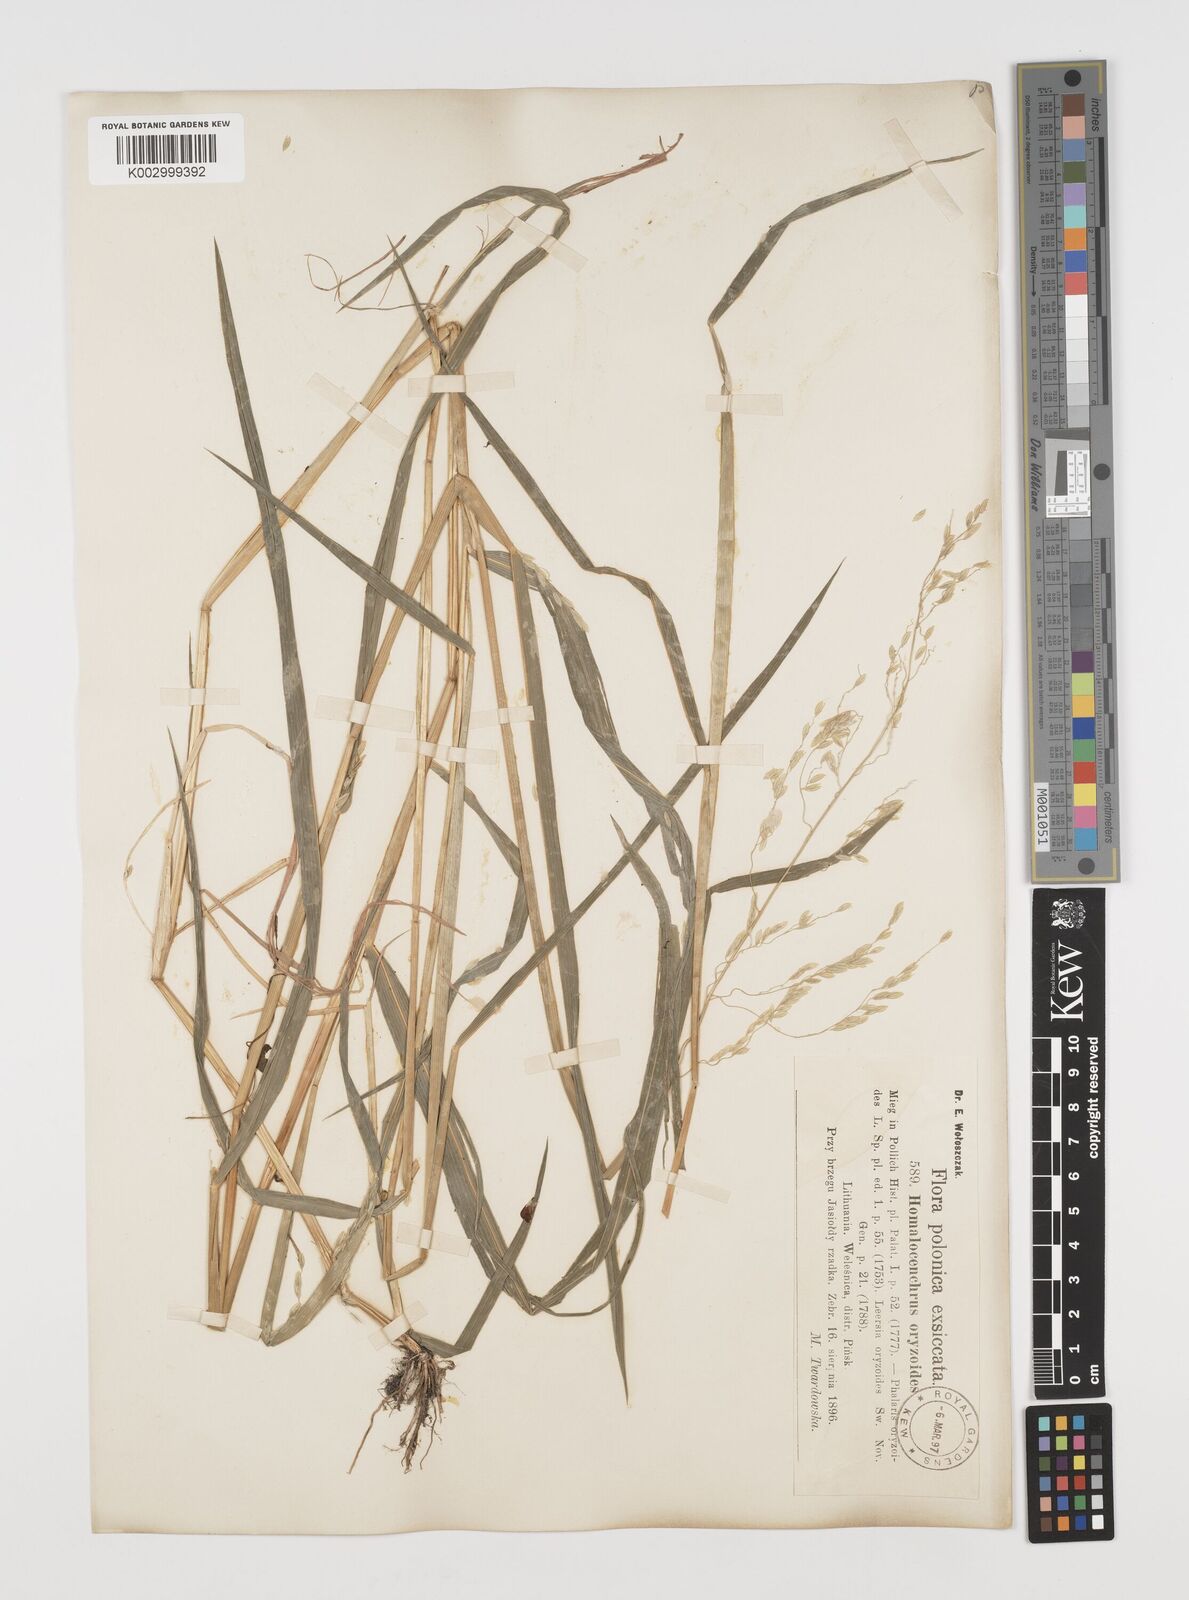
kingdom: Plantae
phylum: Tracheophyta
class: Liliopsida
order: Poales
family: Poaceae
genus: Leersia
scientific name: Leersia oryzoides
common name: Cut-grass
